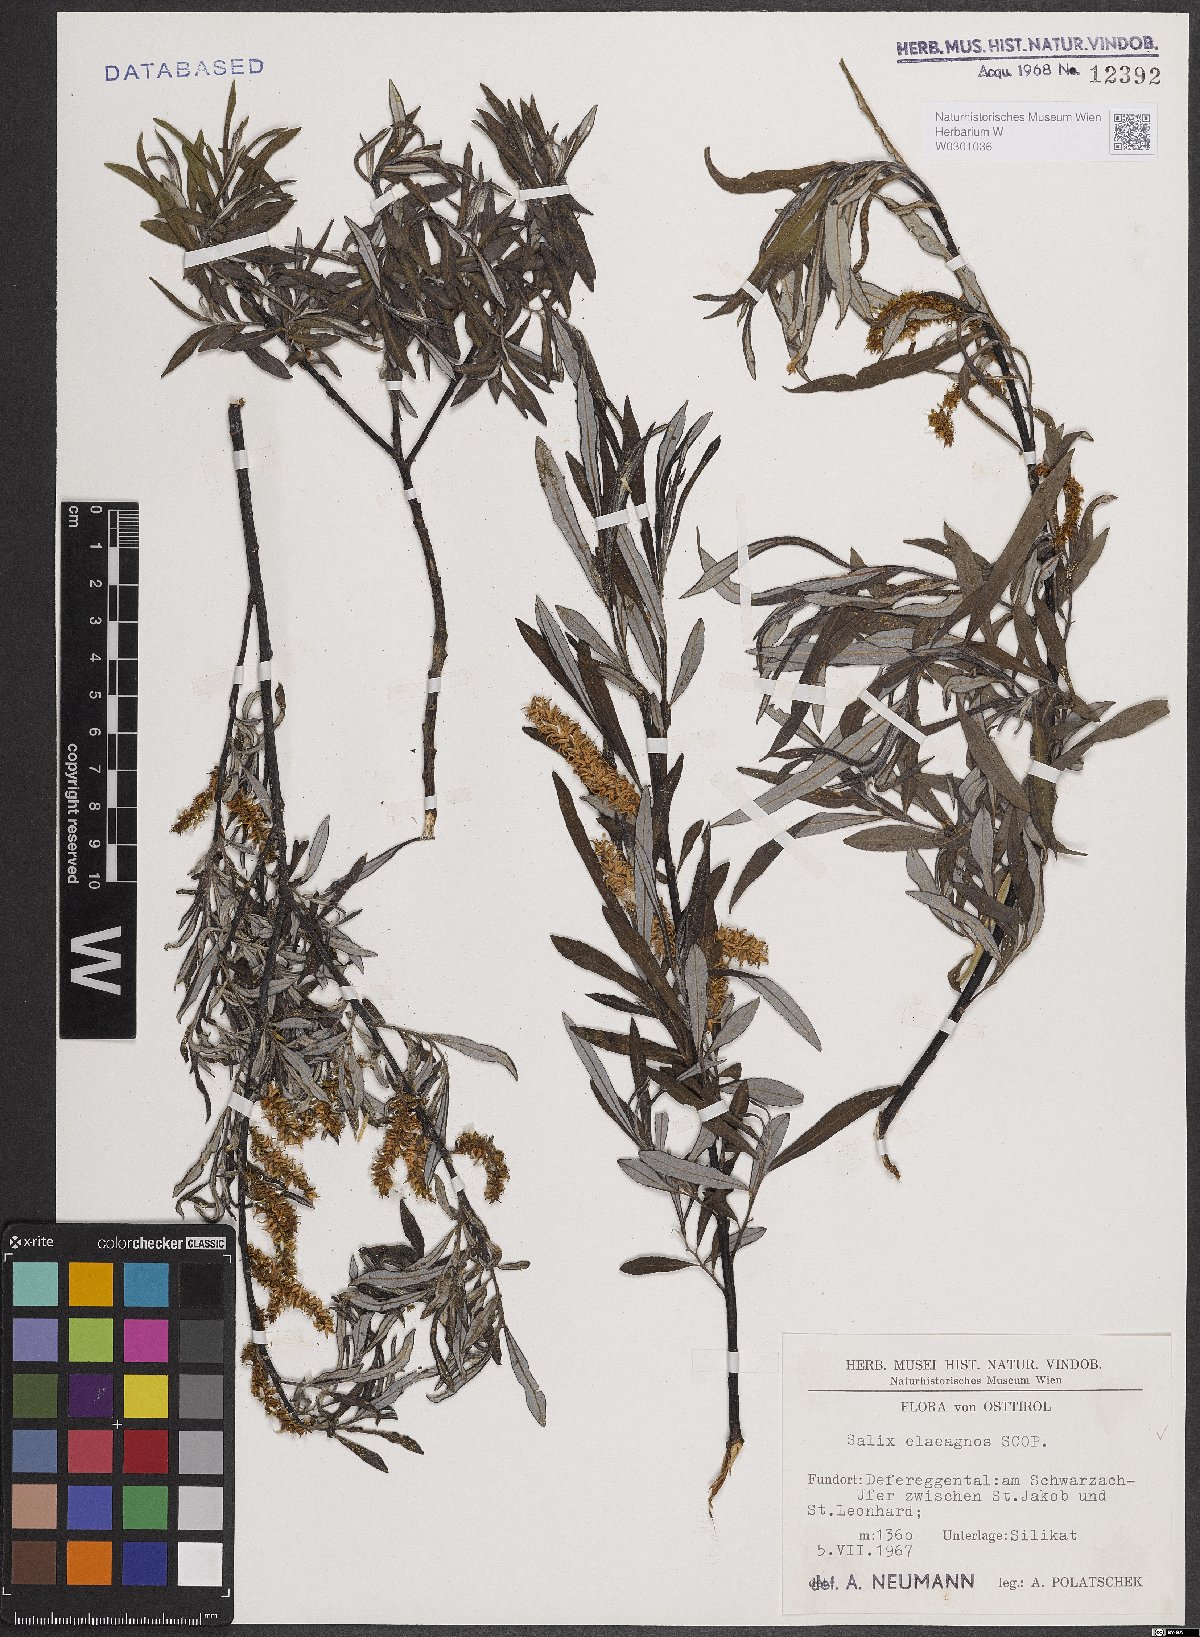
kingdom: Plantae
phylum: Tracheophyta
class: Magnoliopsida
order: Malpighiales
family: Salicaceae
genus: Salix
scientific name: Salix eleagnos
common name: Elaeagnus willow
